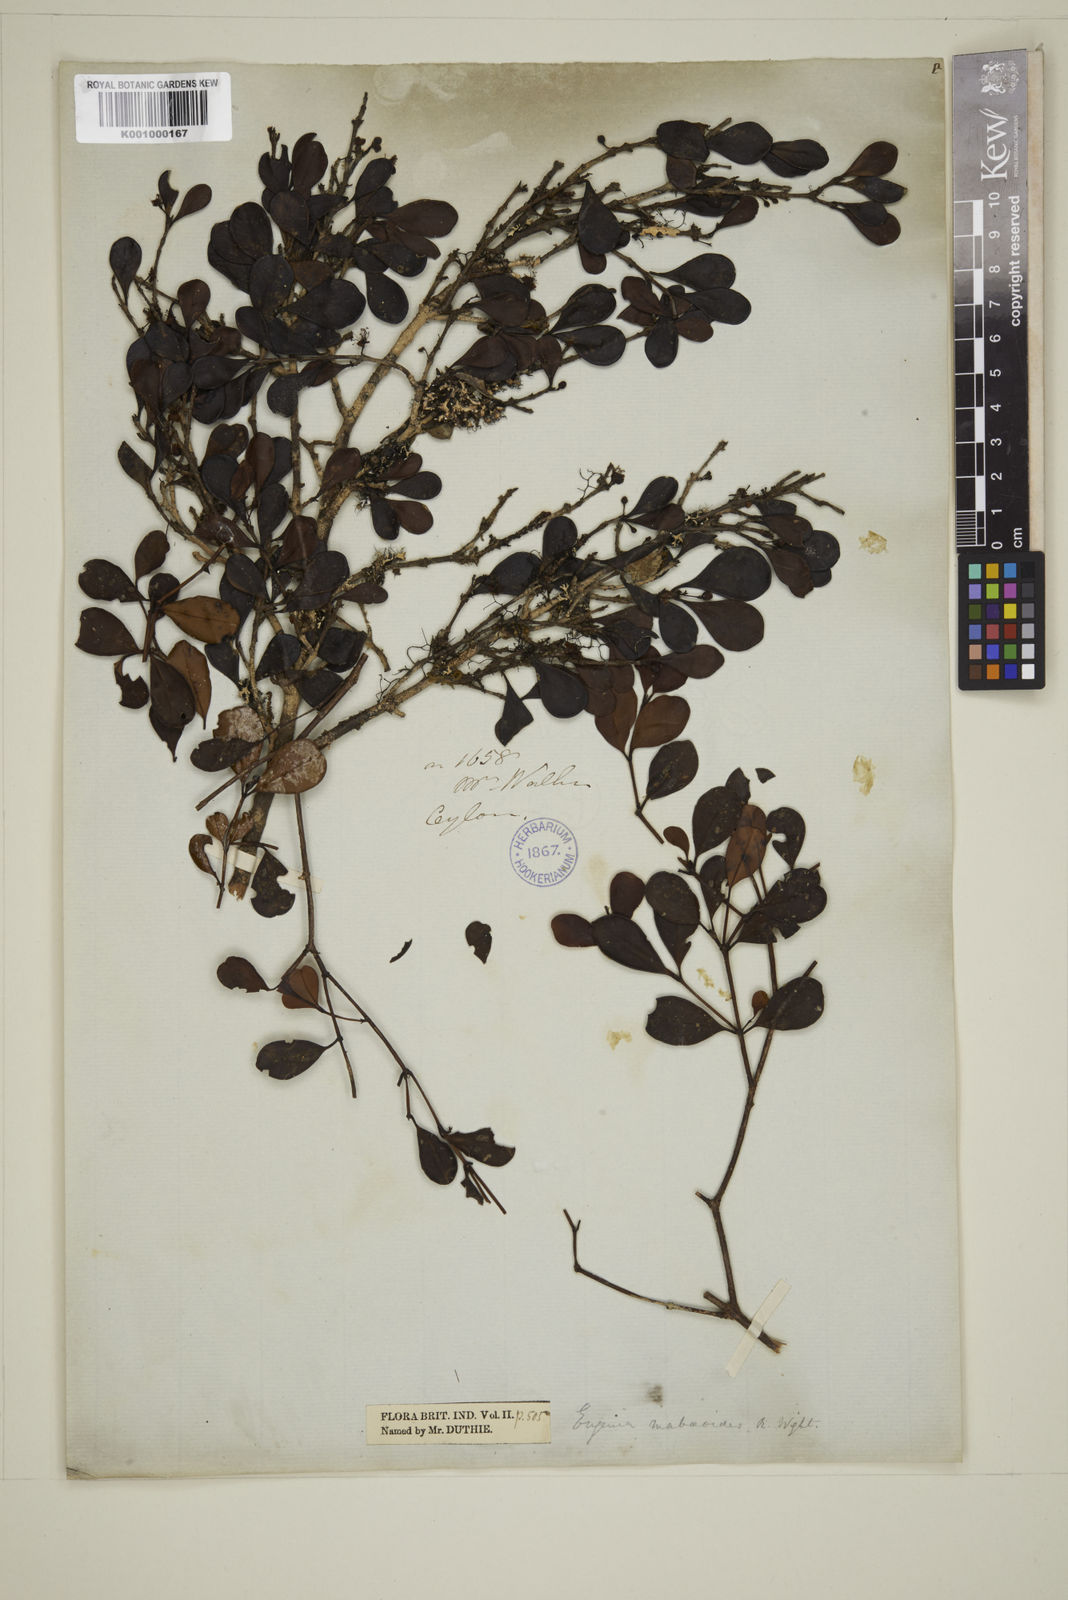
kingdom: Plantae
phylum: Tracheophyta
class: Magnoliopsida
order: Myrtales
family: Myrtaceae
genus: Eugenia
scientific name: Eugenia mabaeoides
